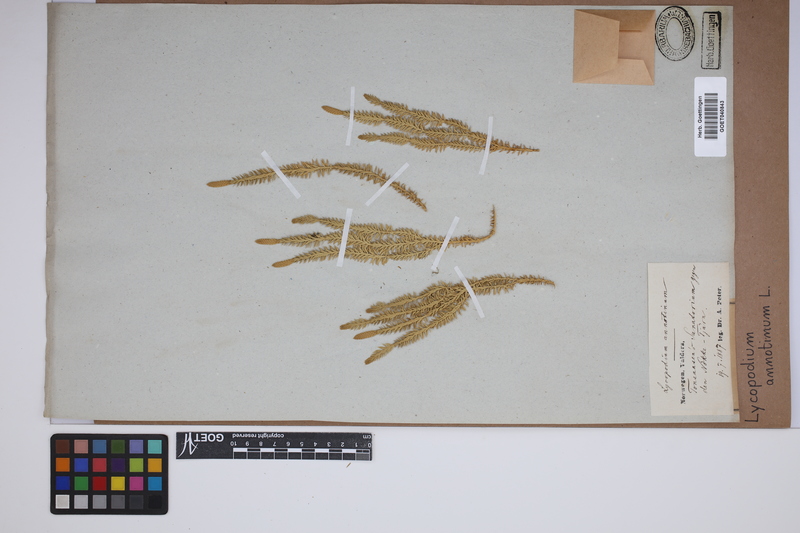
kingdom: Plantae
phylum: Tracheophyta
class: Lycopodiopsida
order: Lycopodiales
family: Lycopodiaceae
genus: Spinulum
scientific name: Spinulum annotinum
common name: Interrupted club-moss
